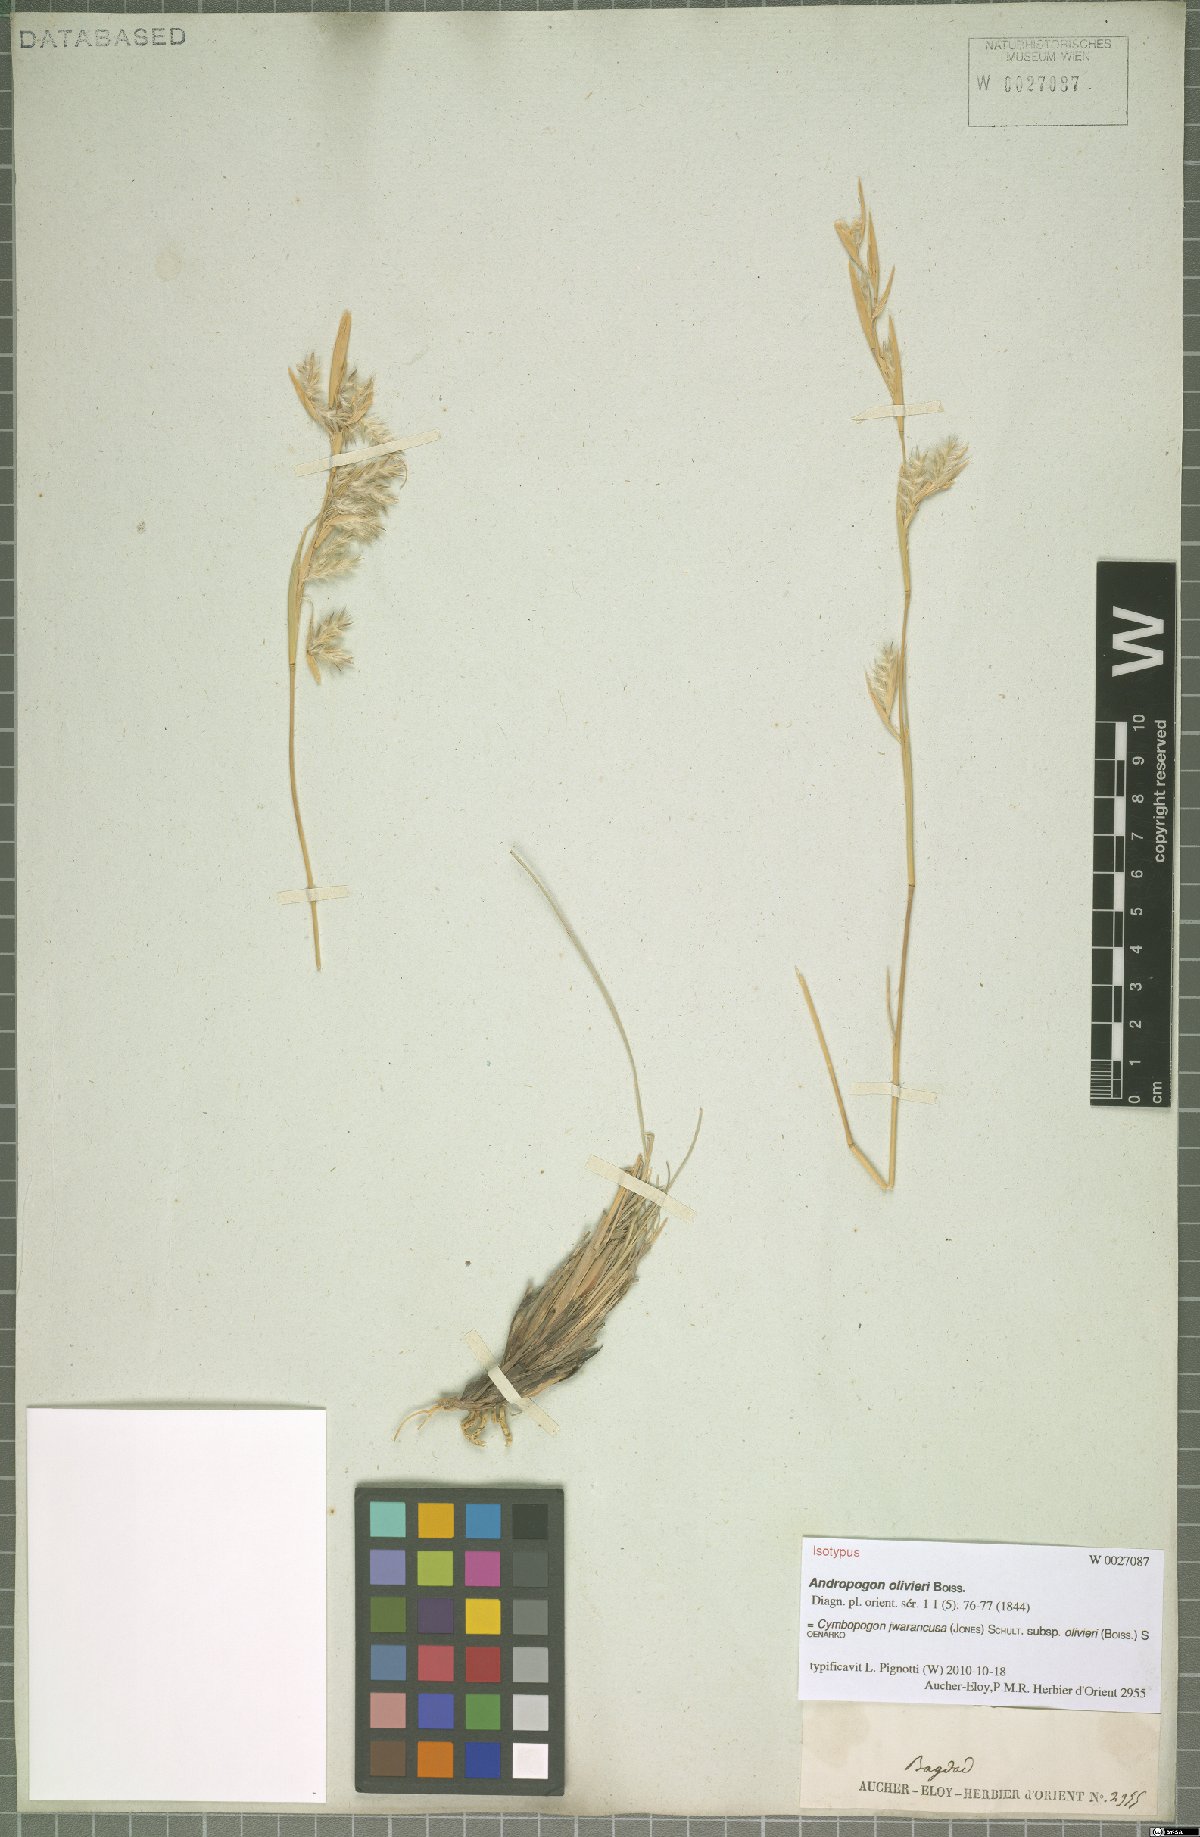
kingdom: Plantae
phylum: Tracheophyta
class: Liliopsida
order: Poales
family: Poaceae
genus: Cymbopogon
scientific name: Cymbopogon iwarancusa
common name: Iwarancusa grass
